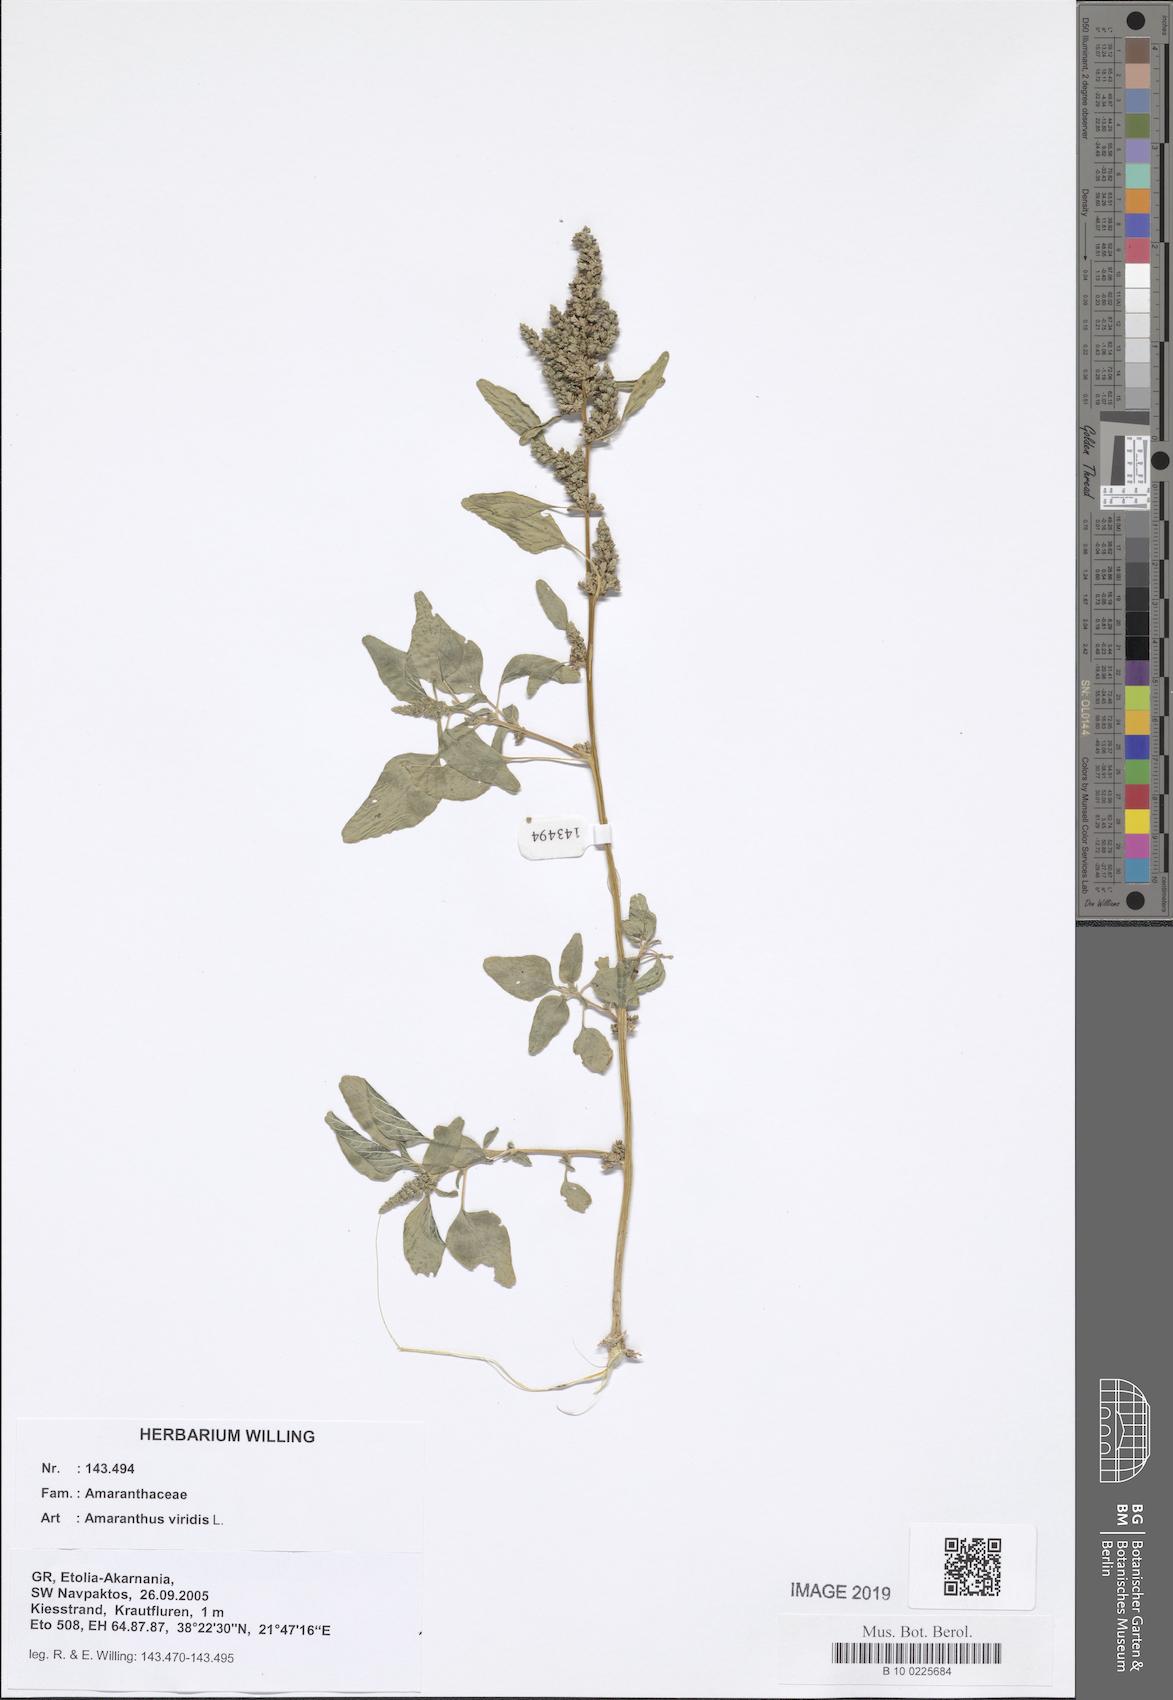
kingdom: Plantae
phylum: Tracheophyta
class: Magnoliopsida
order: Caryophyllales
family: Amaranthaceae
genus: Amaranthus
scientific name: Amaranthus viridis
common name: Slender amaranth
